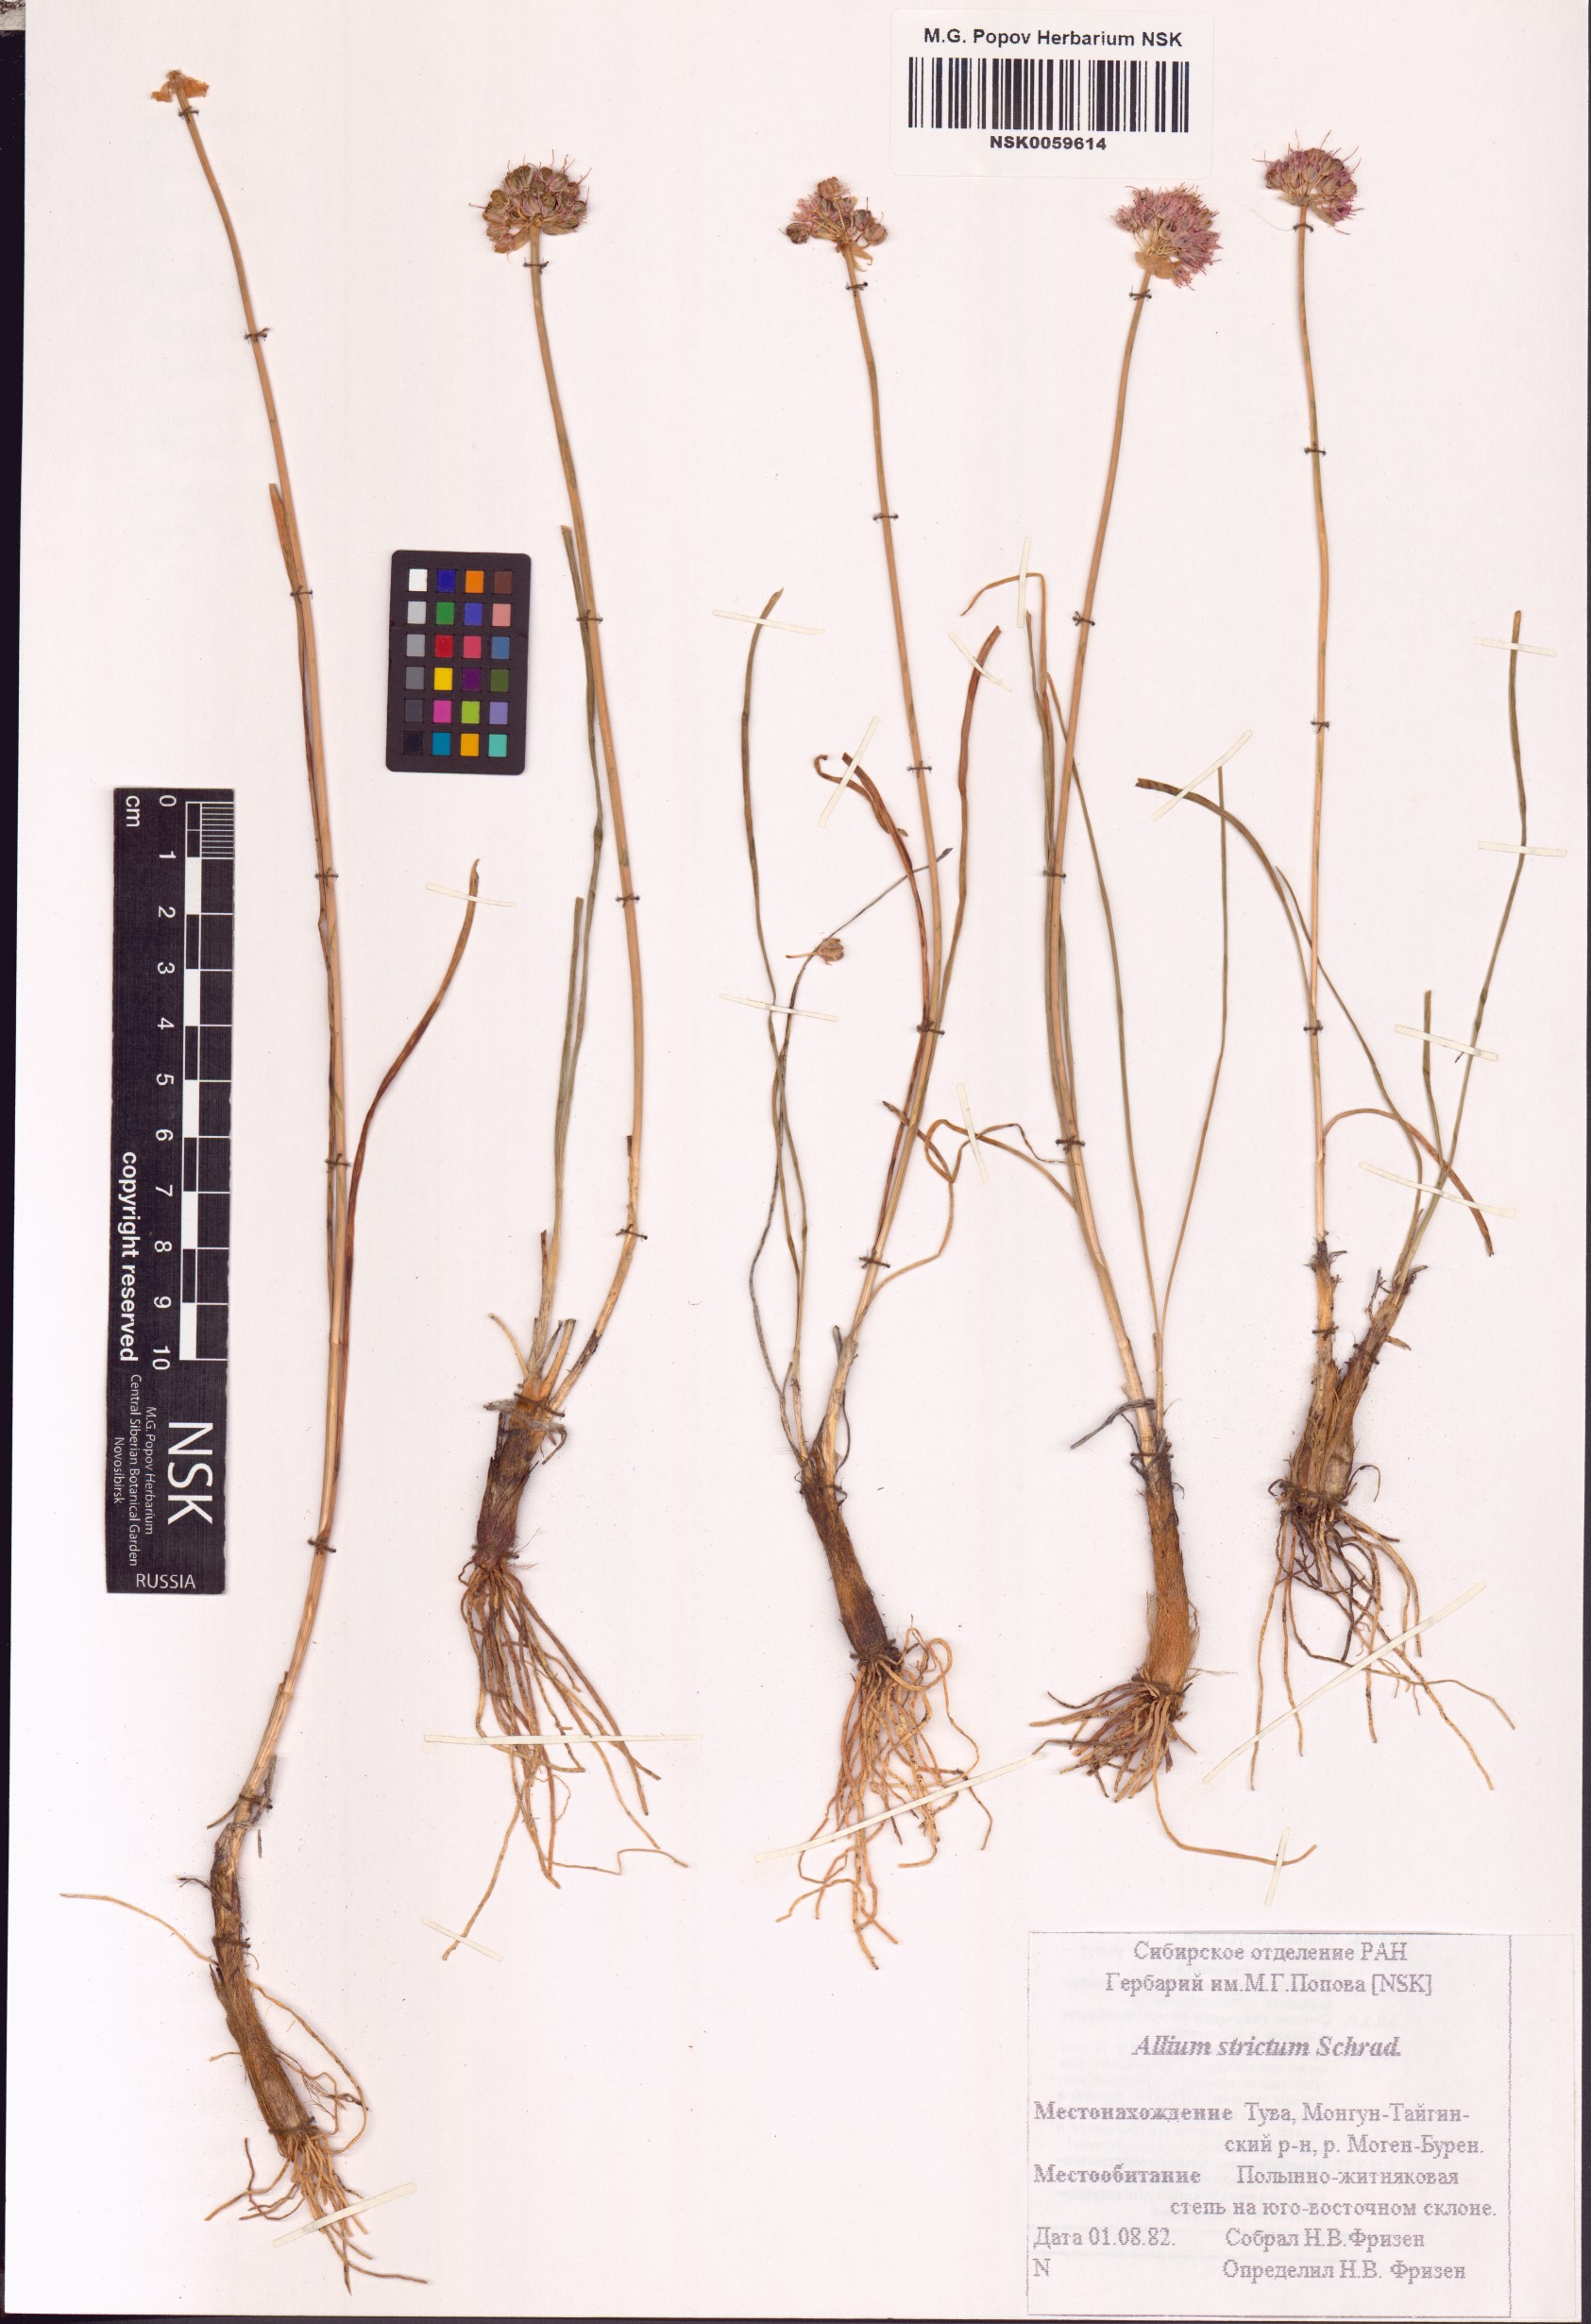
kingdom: Plantae
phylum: Tracheophyta
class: Liliopsida
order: Asparagales
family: Amaryllidaceae
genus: Allium
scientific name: Allium strictum
